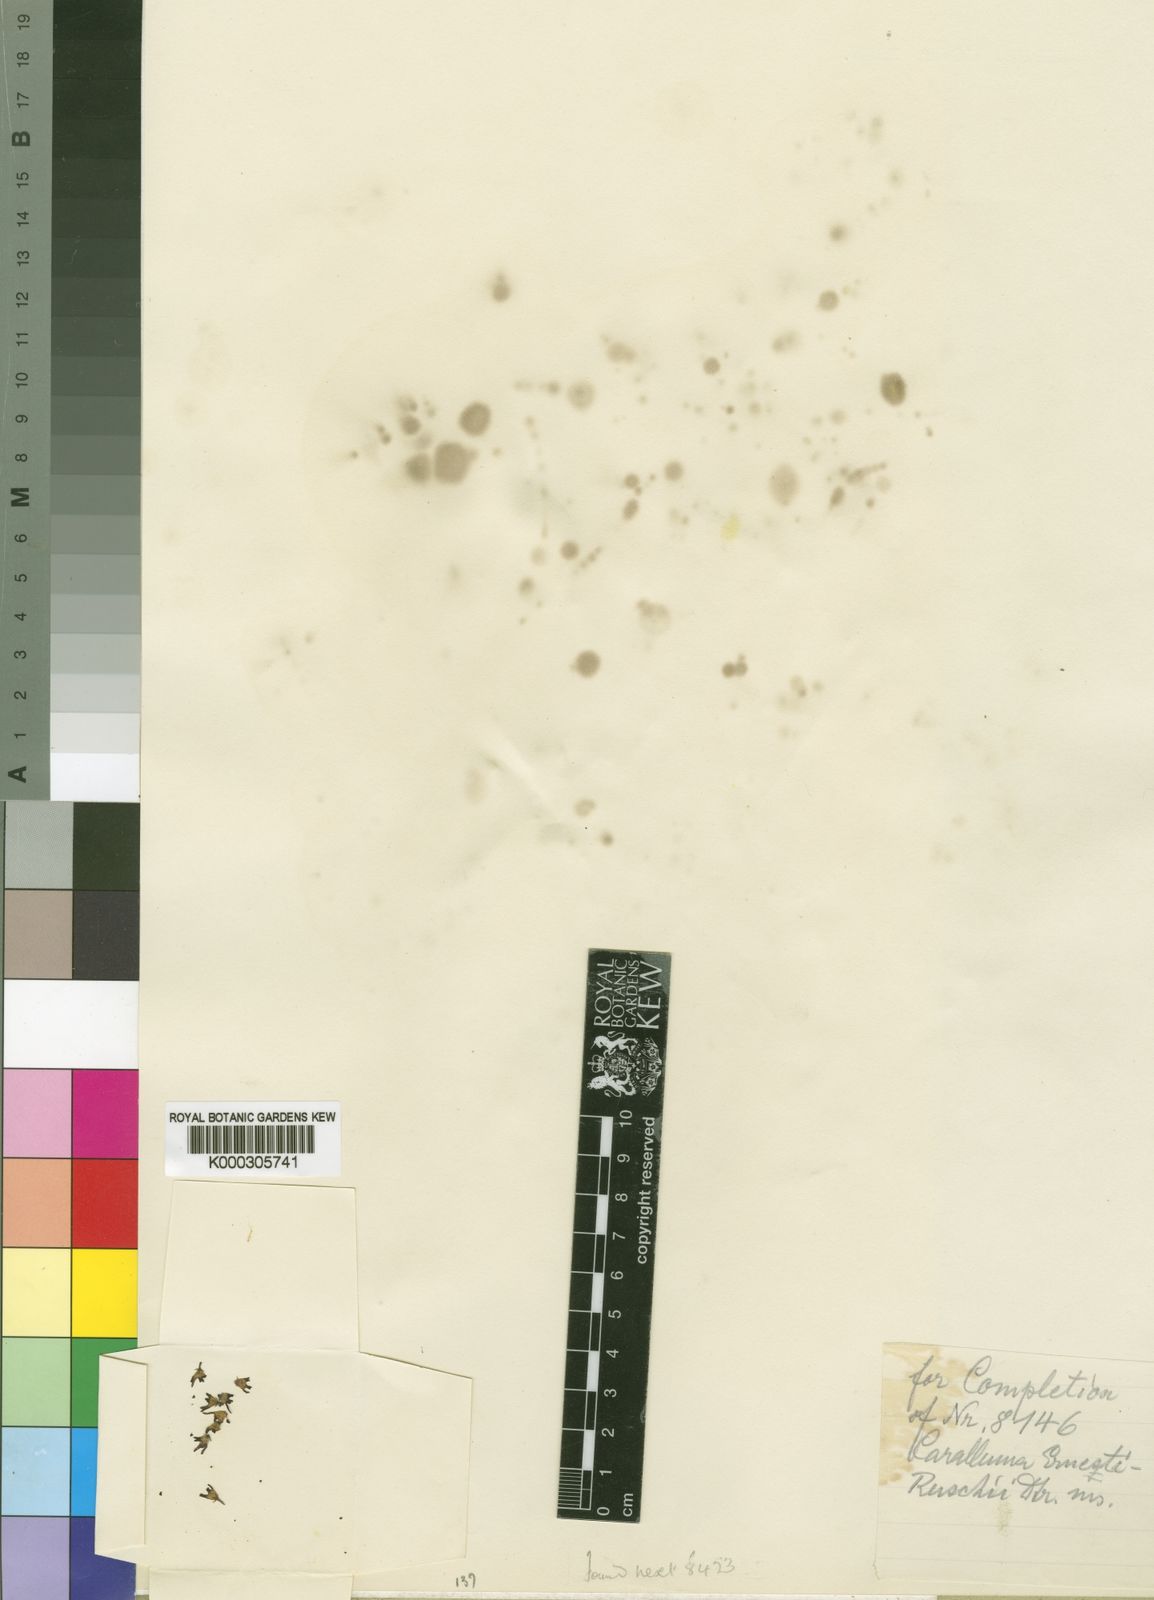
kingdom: Plantae
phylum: Tracheophyta
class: Magnoliopsida
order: Gentianales
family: Apocynaceae
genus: Caralluma
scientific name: Caralluma
